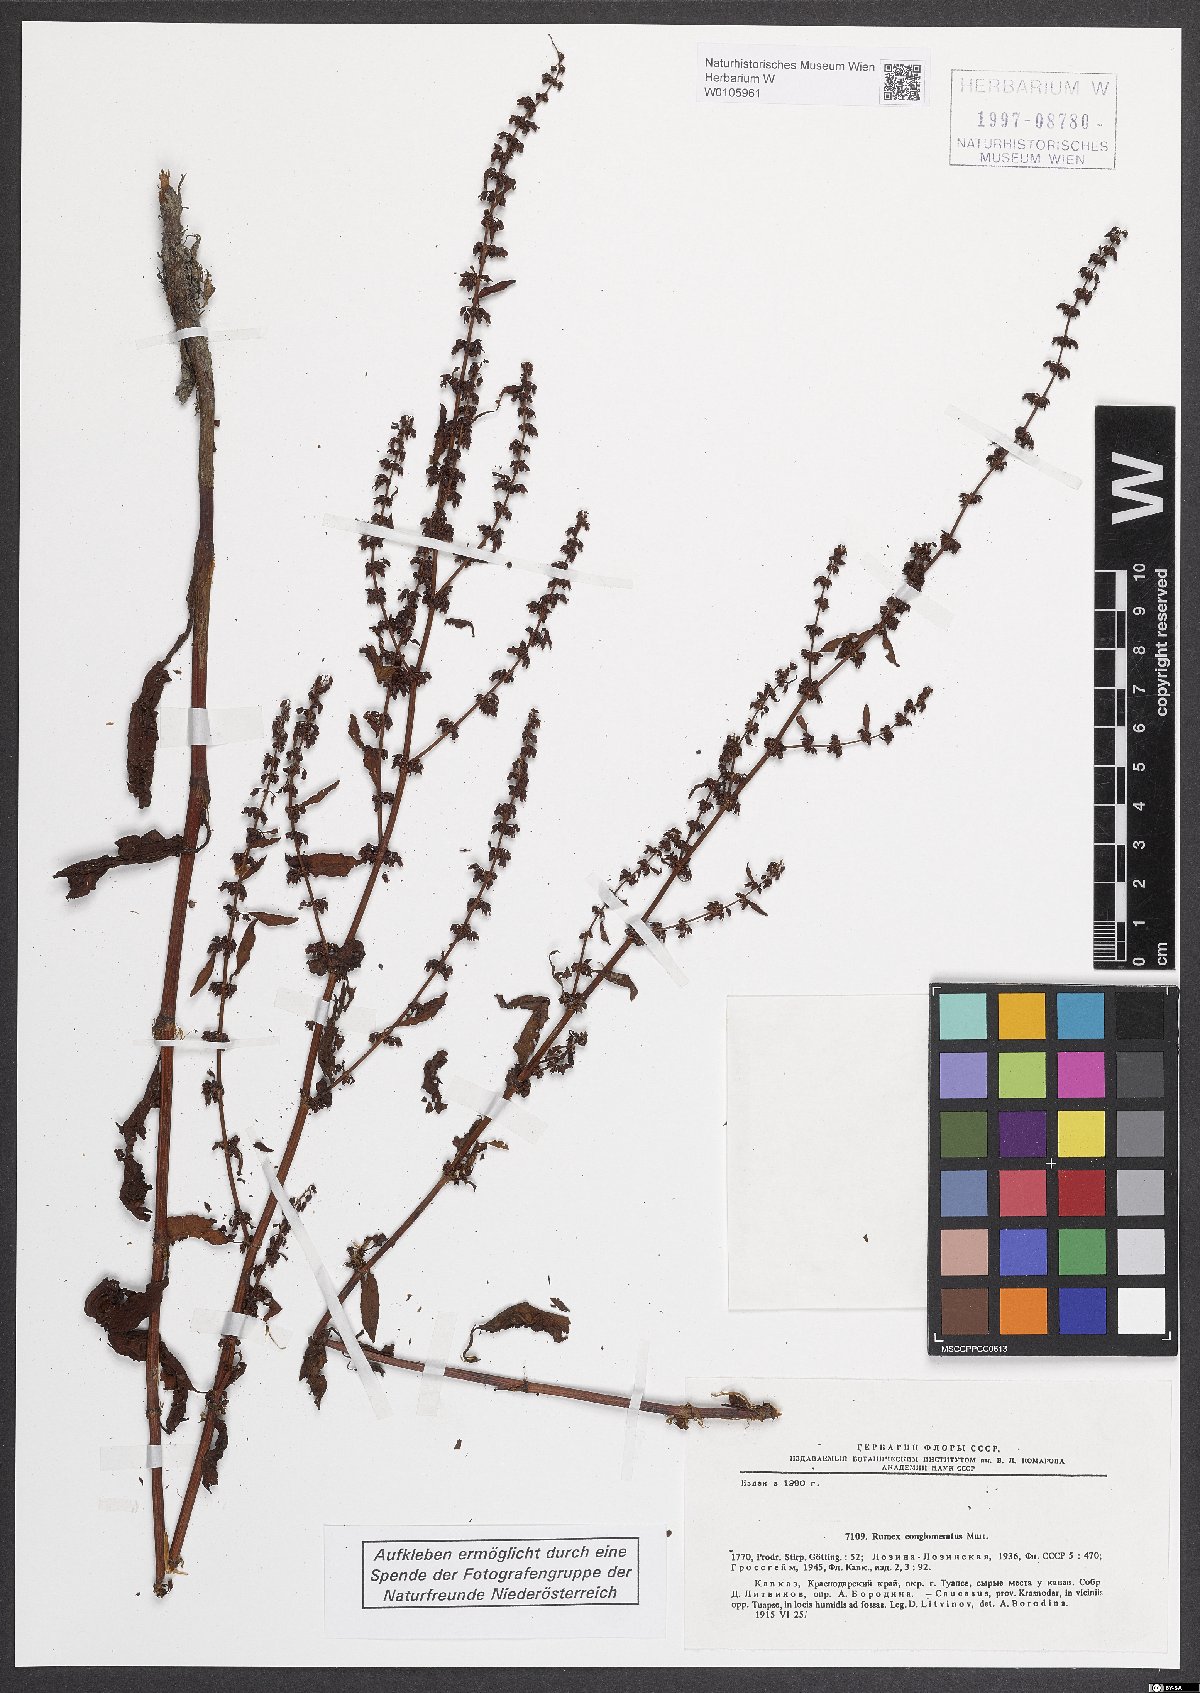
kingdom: Plantae
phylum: Tracheophyta
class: Magnoliopsida
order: Caryophyllales
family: Polygonaceae
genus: Rumex
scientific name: Rumex conglomeratus
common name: Clustered dock
